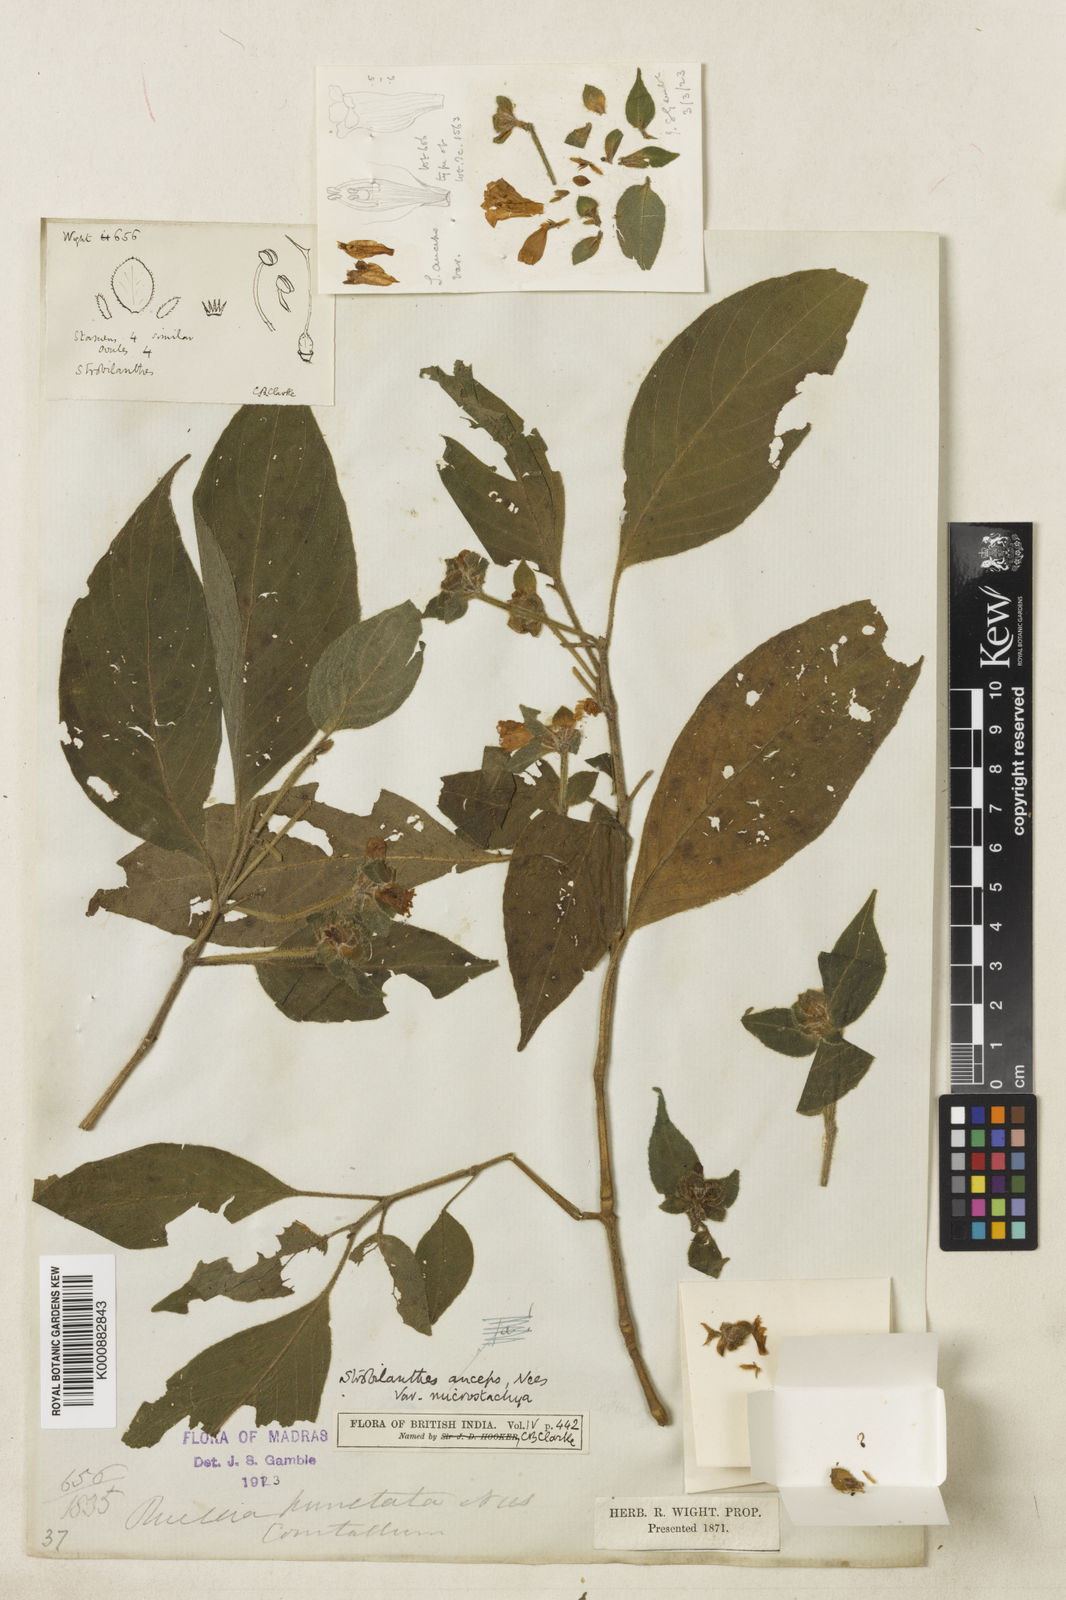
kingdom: Plantae
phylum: Tracheophyta
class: Magnoliopsida
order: Lamiales
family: Acanthaceae
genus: Strobilanthes
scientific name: Strobilanthes
